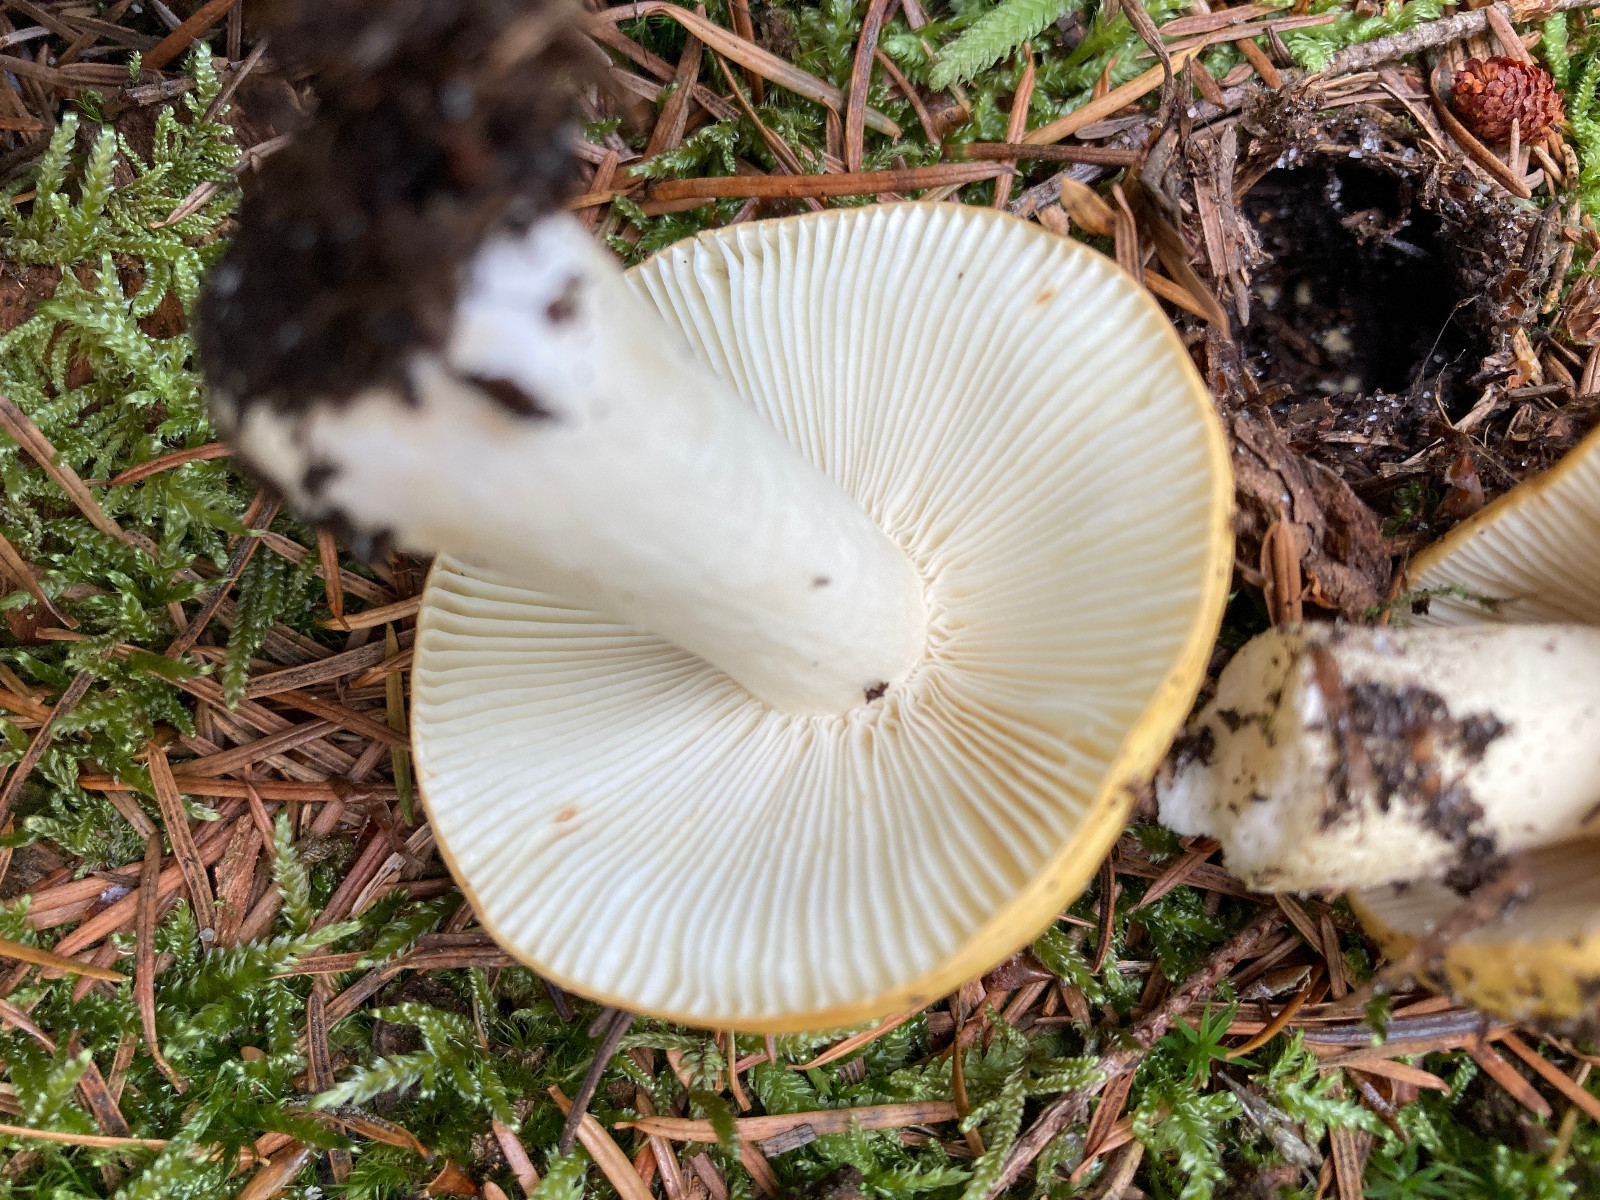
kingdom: Fungi
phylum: Basidiomycota
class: Agaricomycetes
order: Russulales
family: Russulaceae
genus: Russula
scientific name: Russula ochroleuca
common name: okkergul skørhat
